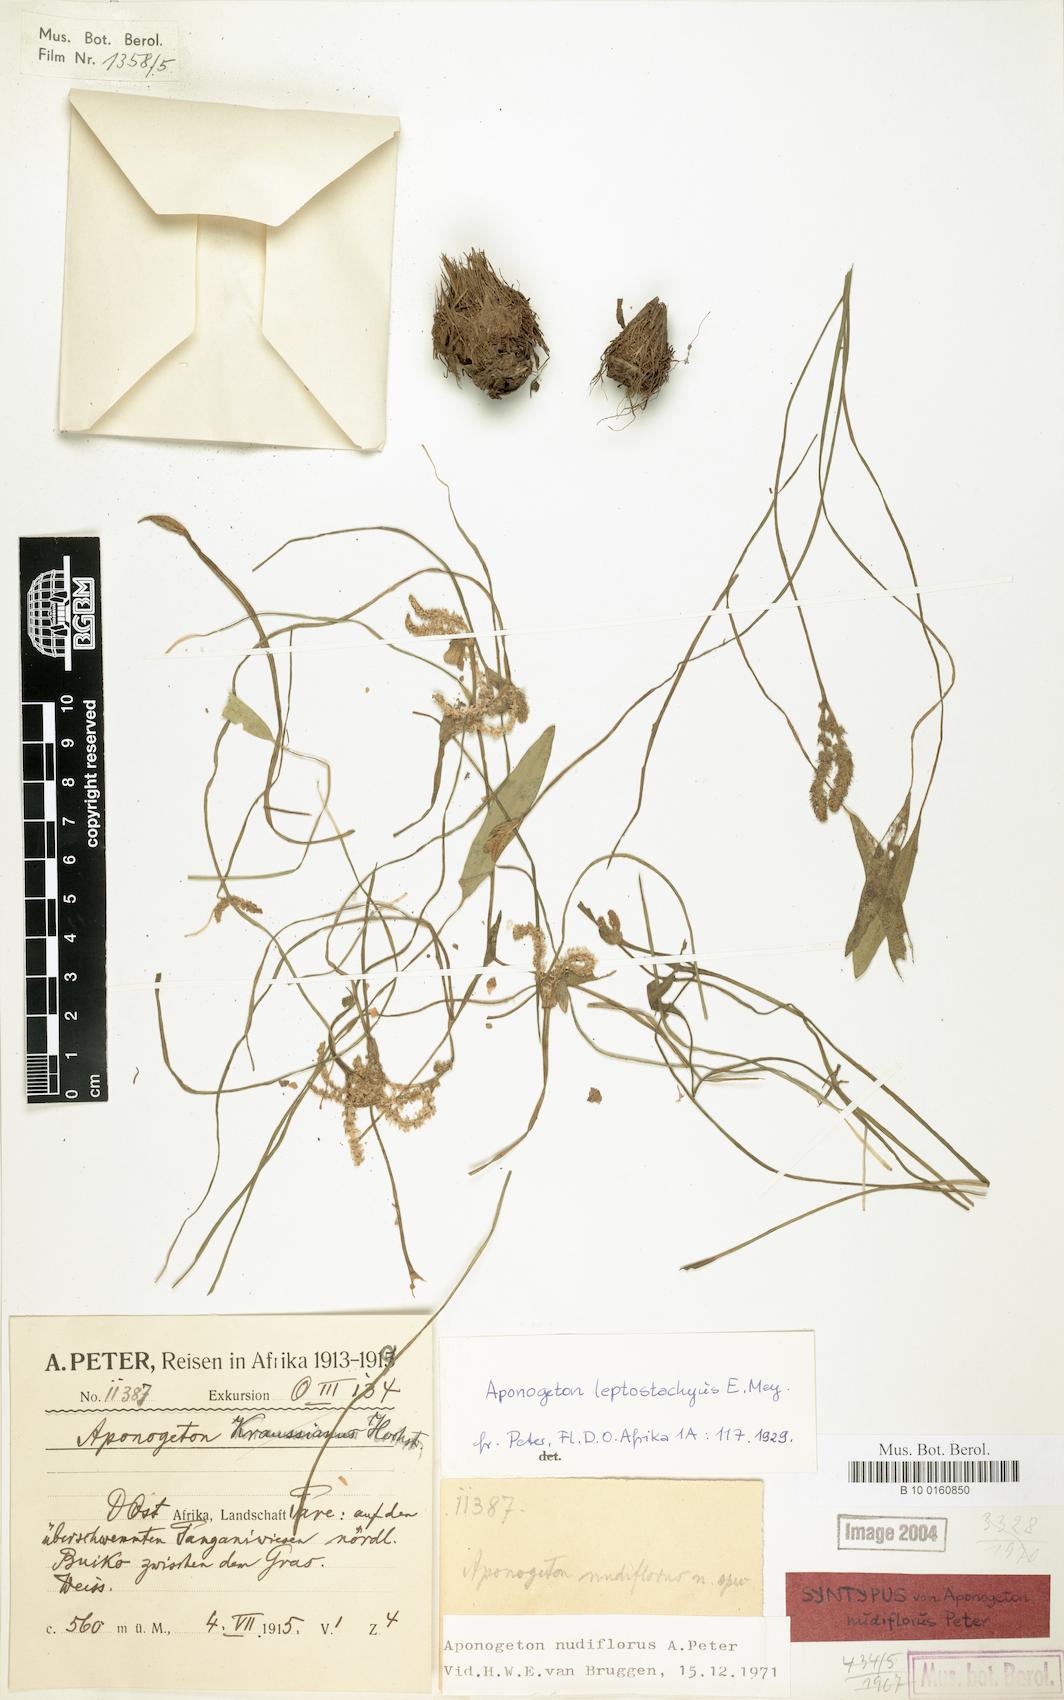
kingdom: Plantae
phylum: Tracheophyta
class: Liliopsida
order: Alismatales
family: Aponogetonaceae
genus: Aponogeton
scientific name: Aponogeton nudiflorus
